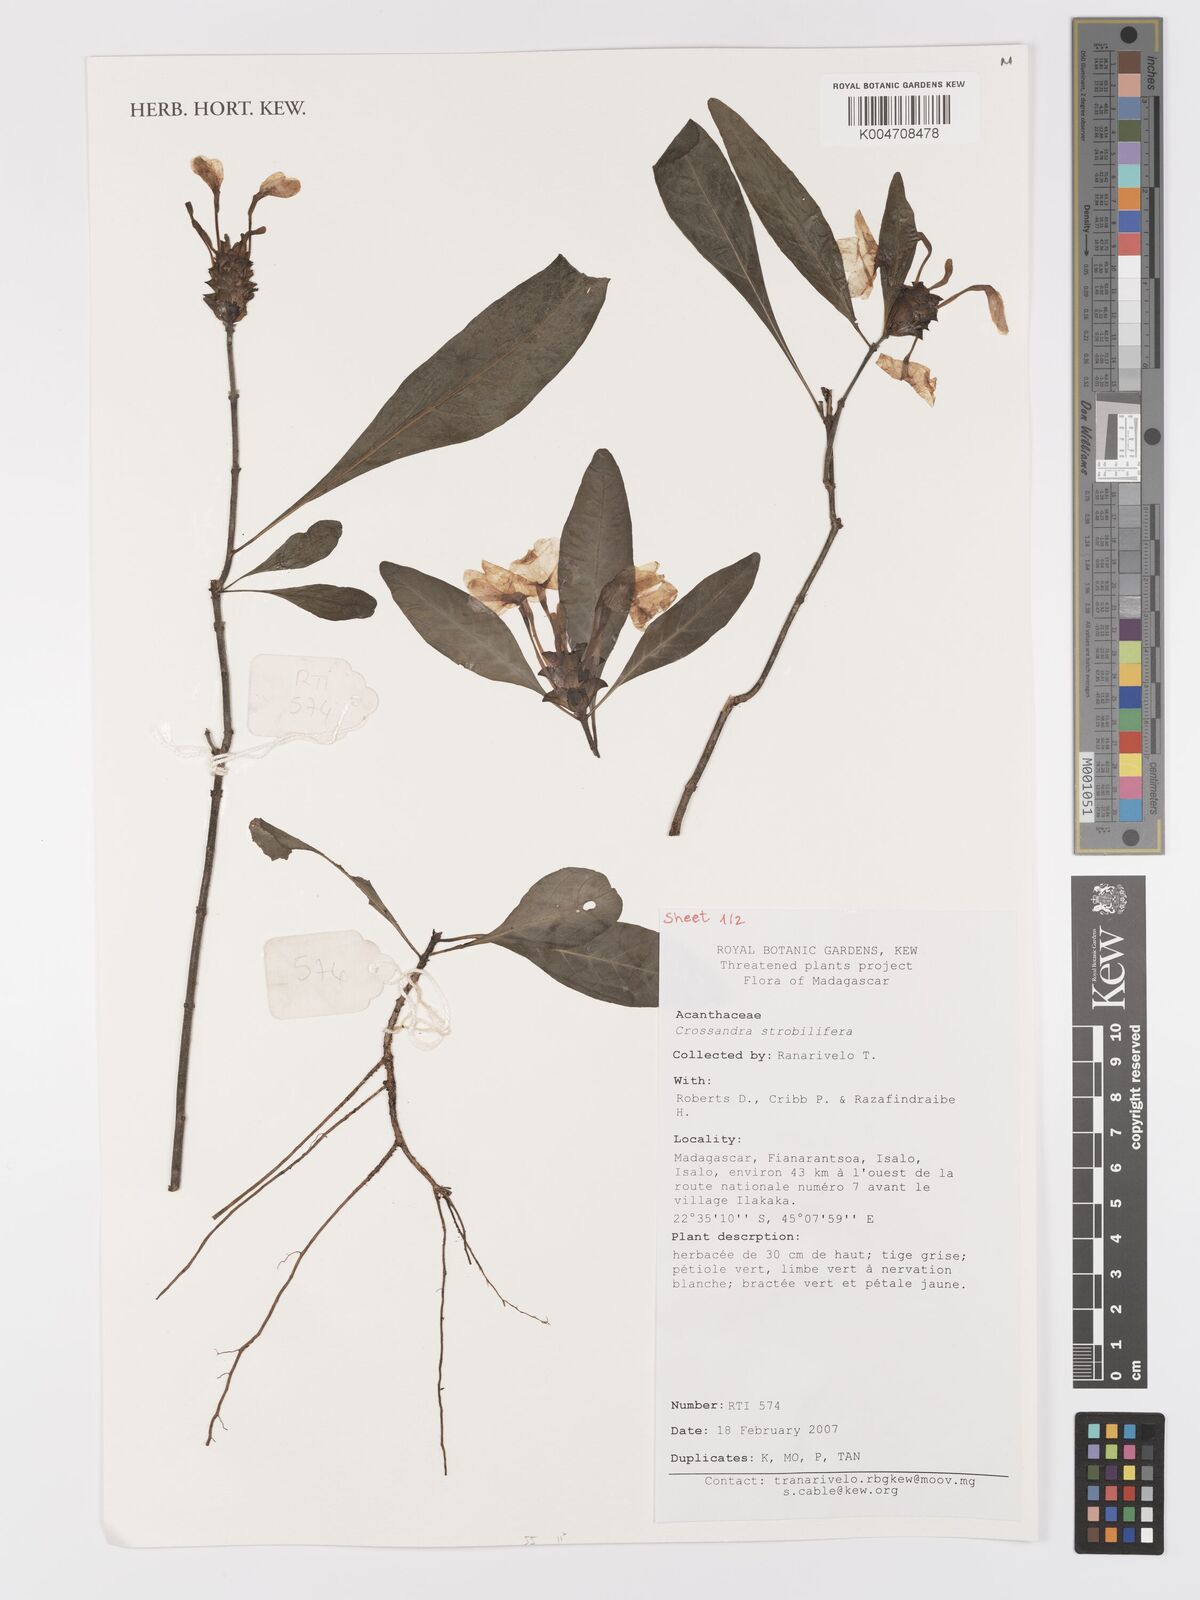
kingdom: Plantae
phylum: Tracheophyta
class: Magnoliopsida
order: Lamiales
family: Acanthaceae
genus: Crossandra
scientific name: Crossandra strobilifera
